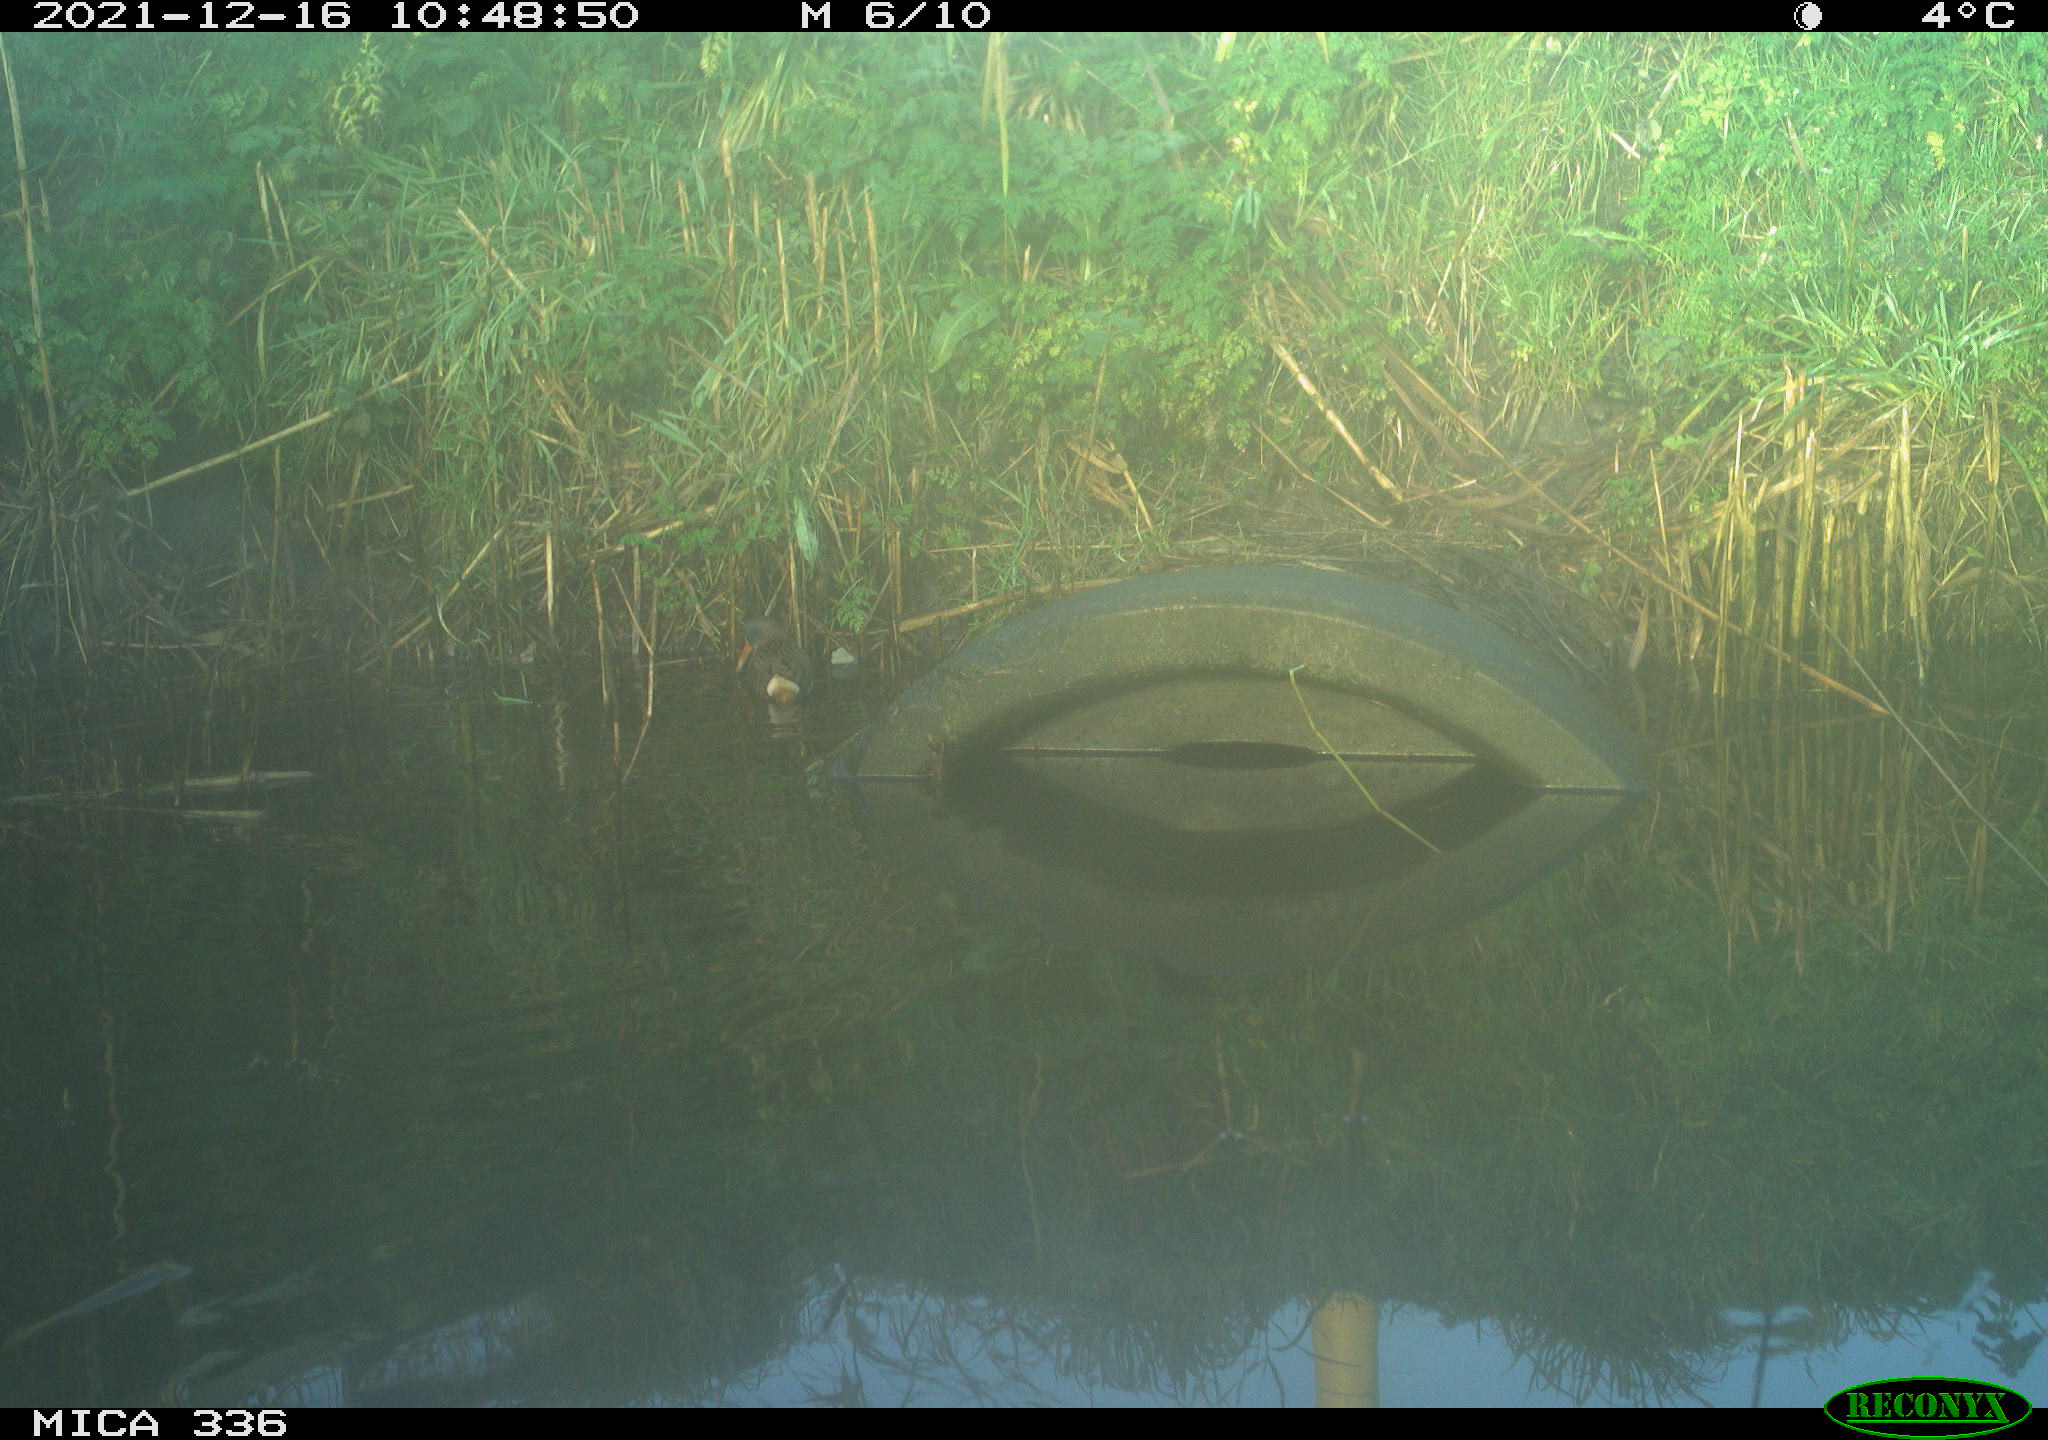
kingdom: Animalia
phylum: Chordata
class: Aves
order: Gruiformes
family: Rallidae
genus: Gallinula
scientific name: Gallinula chloropus
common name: Common moorhen
